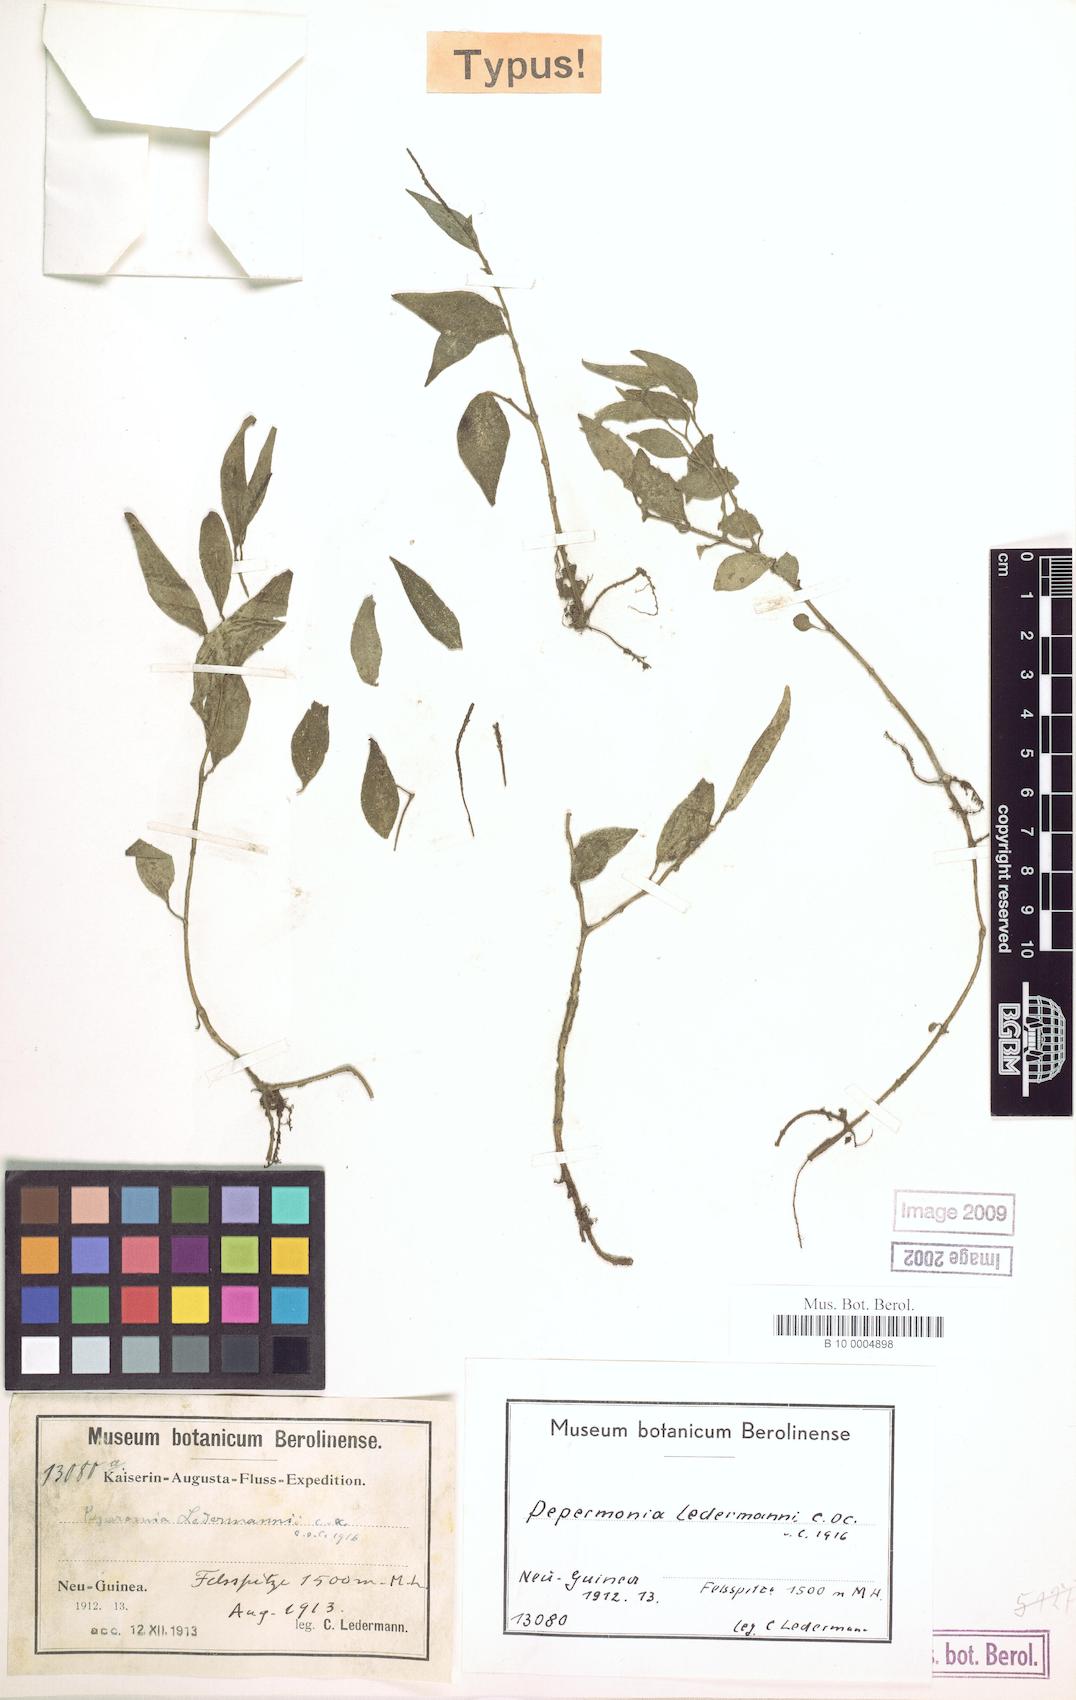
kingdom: Plantae
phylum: Tracheophyta
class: Magnoliopsida
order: Piperales
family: Piperaceae
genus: Peperomia
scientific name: Peperomia ledermannii
